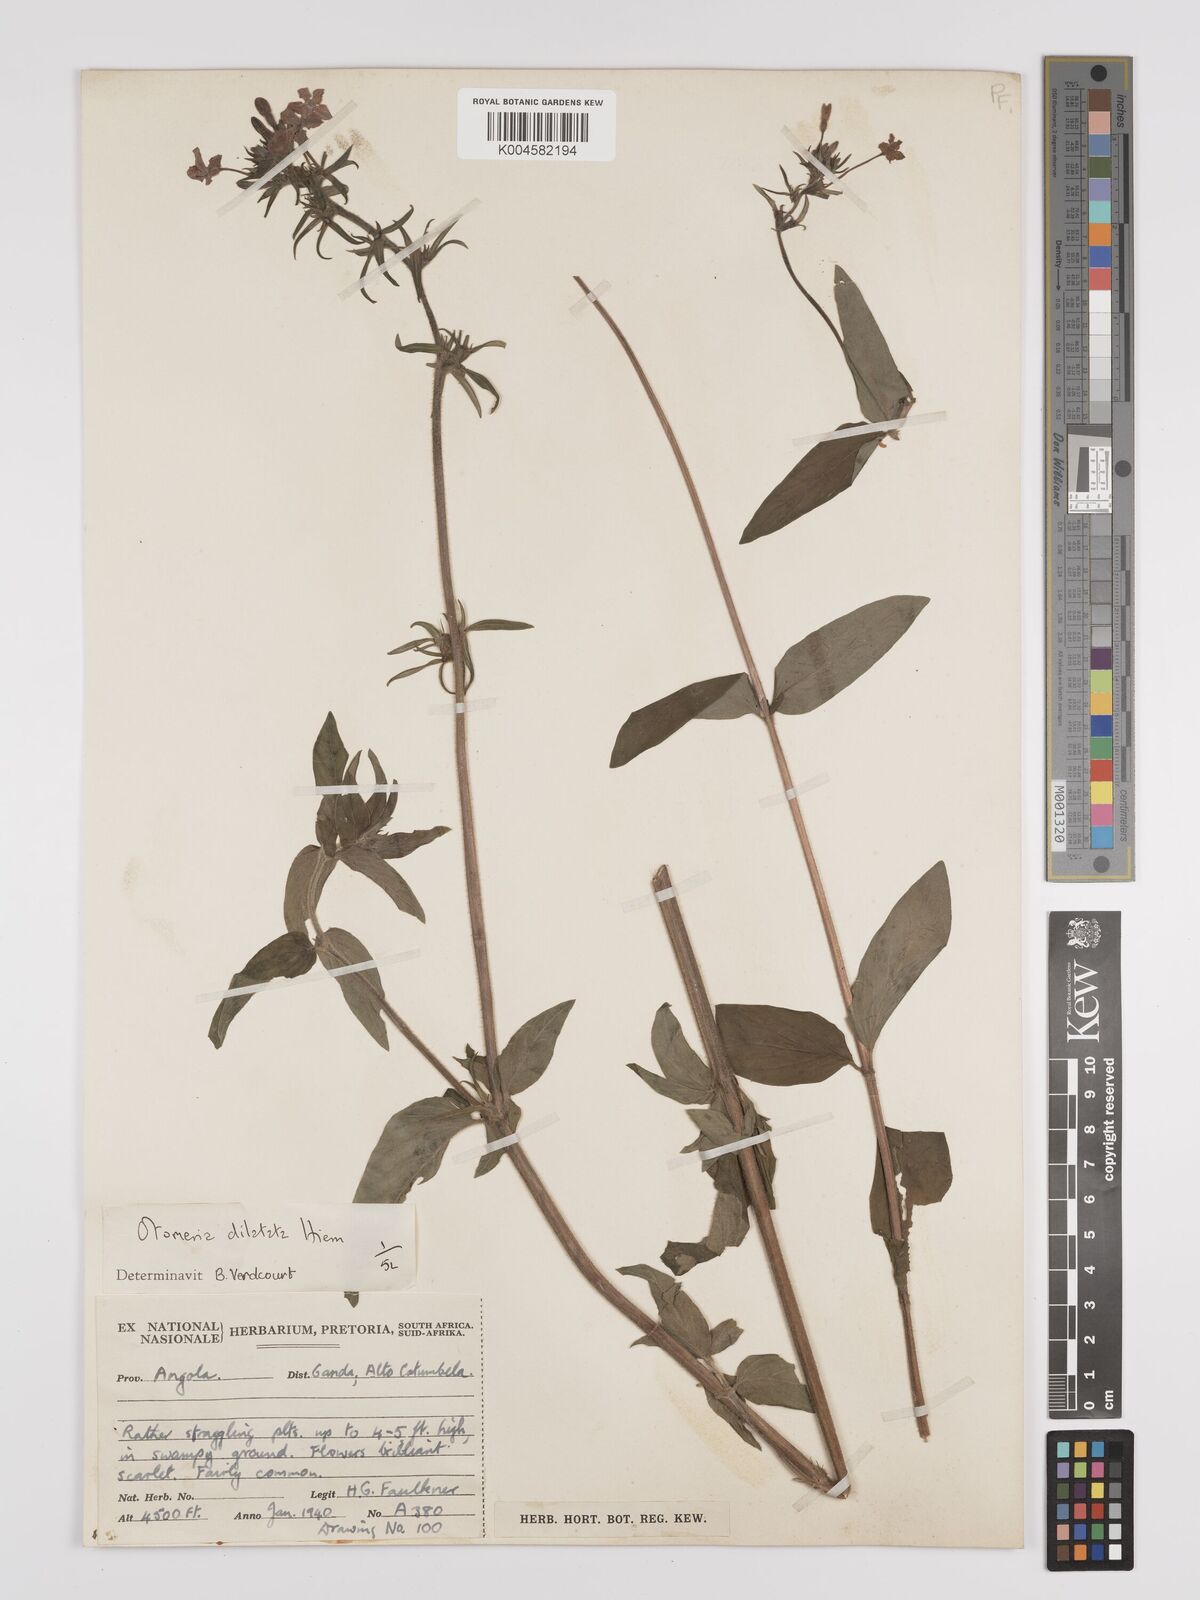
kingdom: Plantae
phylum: Tracheophyta
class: Magnoliopsida
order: Gentianales
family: Rubiaceae
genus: Otomeria
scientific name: Otomeria elatior
